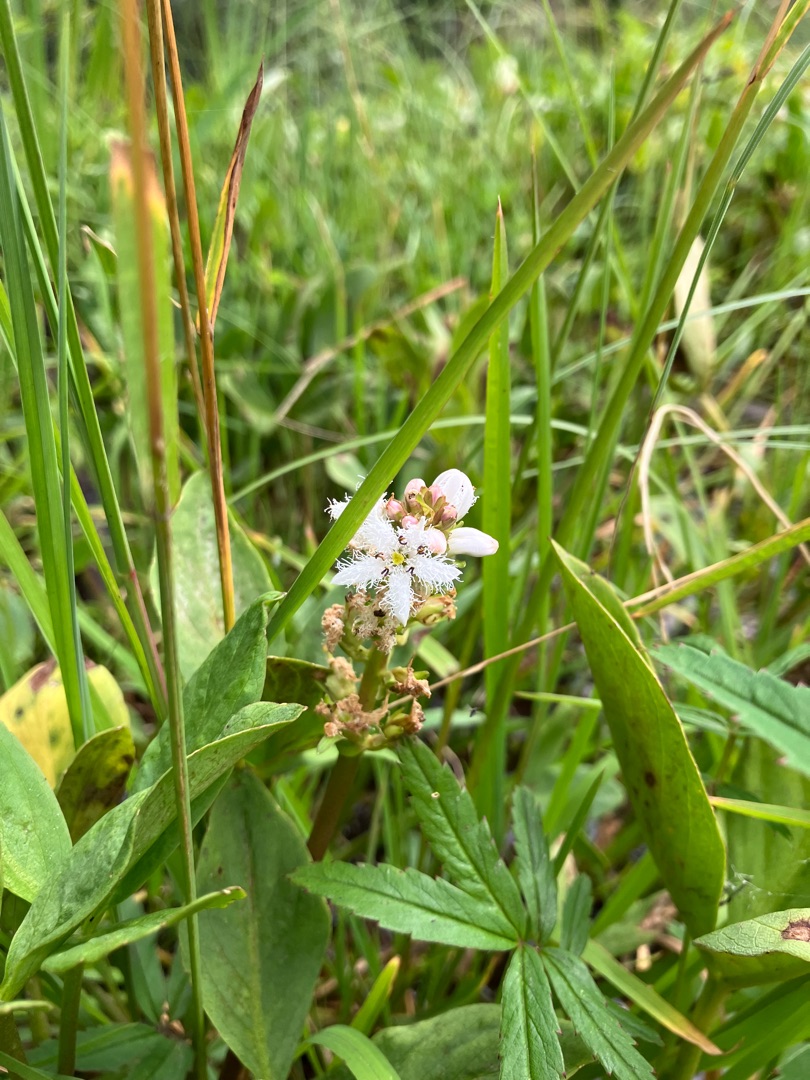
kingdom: Plantae
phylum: Tracheophyta
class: Magnoliopsida
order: Asterales
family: Menyanthaceae
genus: Menyanthes
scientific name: Menyanthes trifoliata
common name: Bukkeblad
